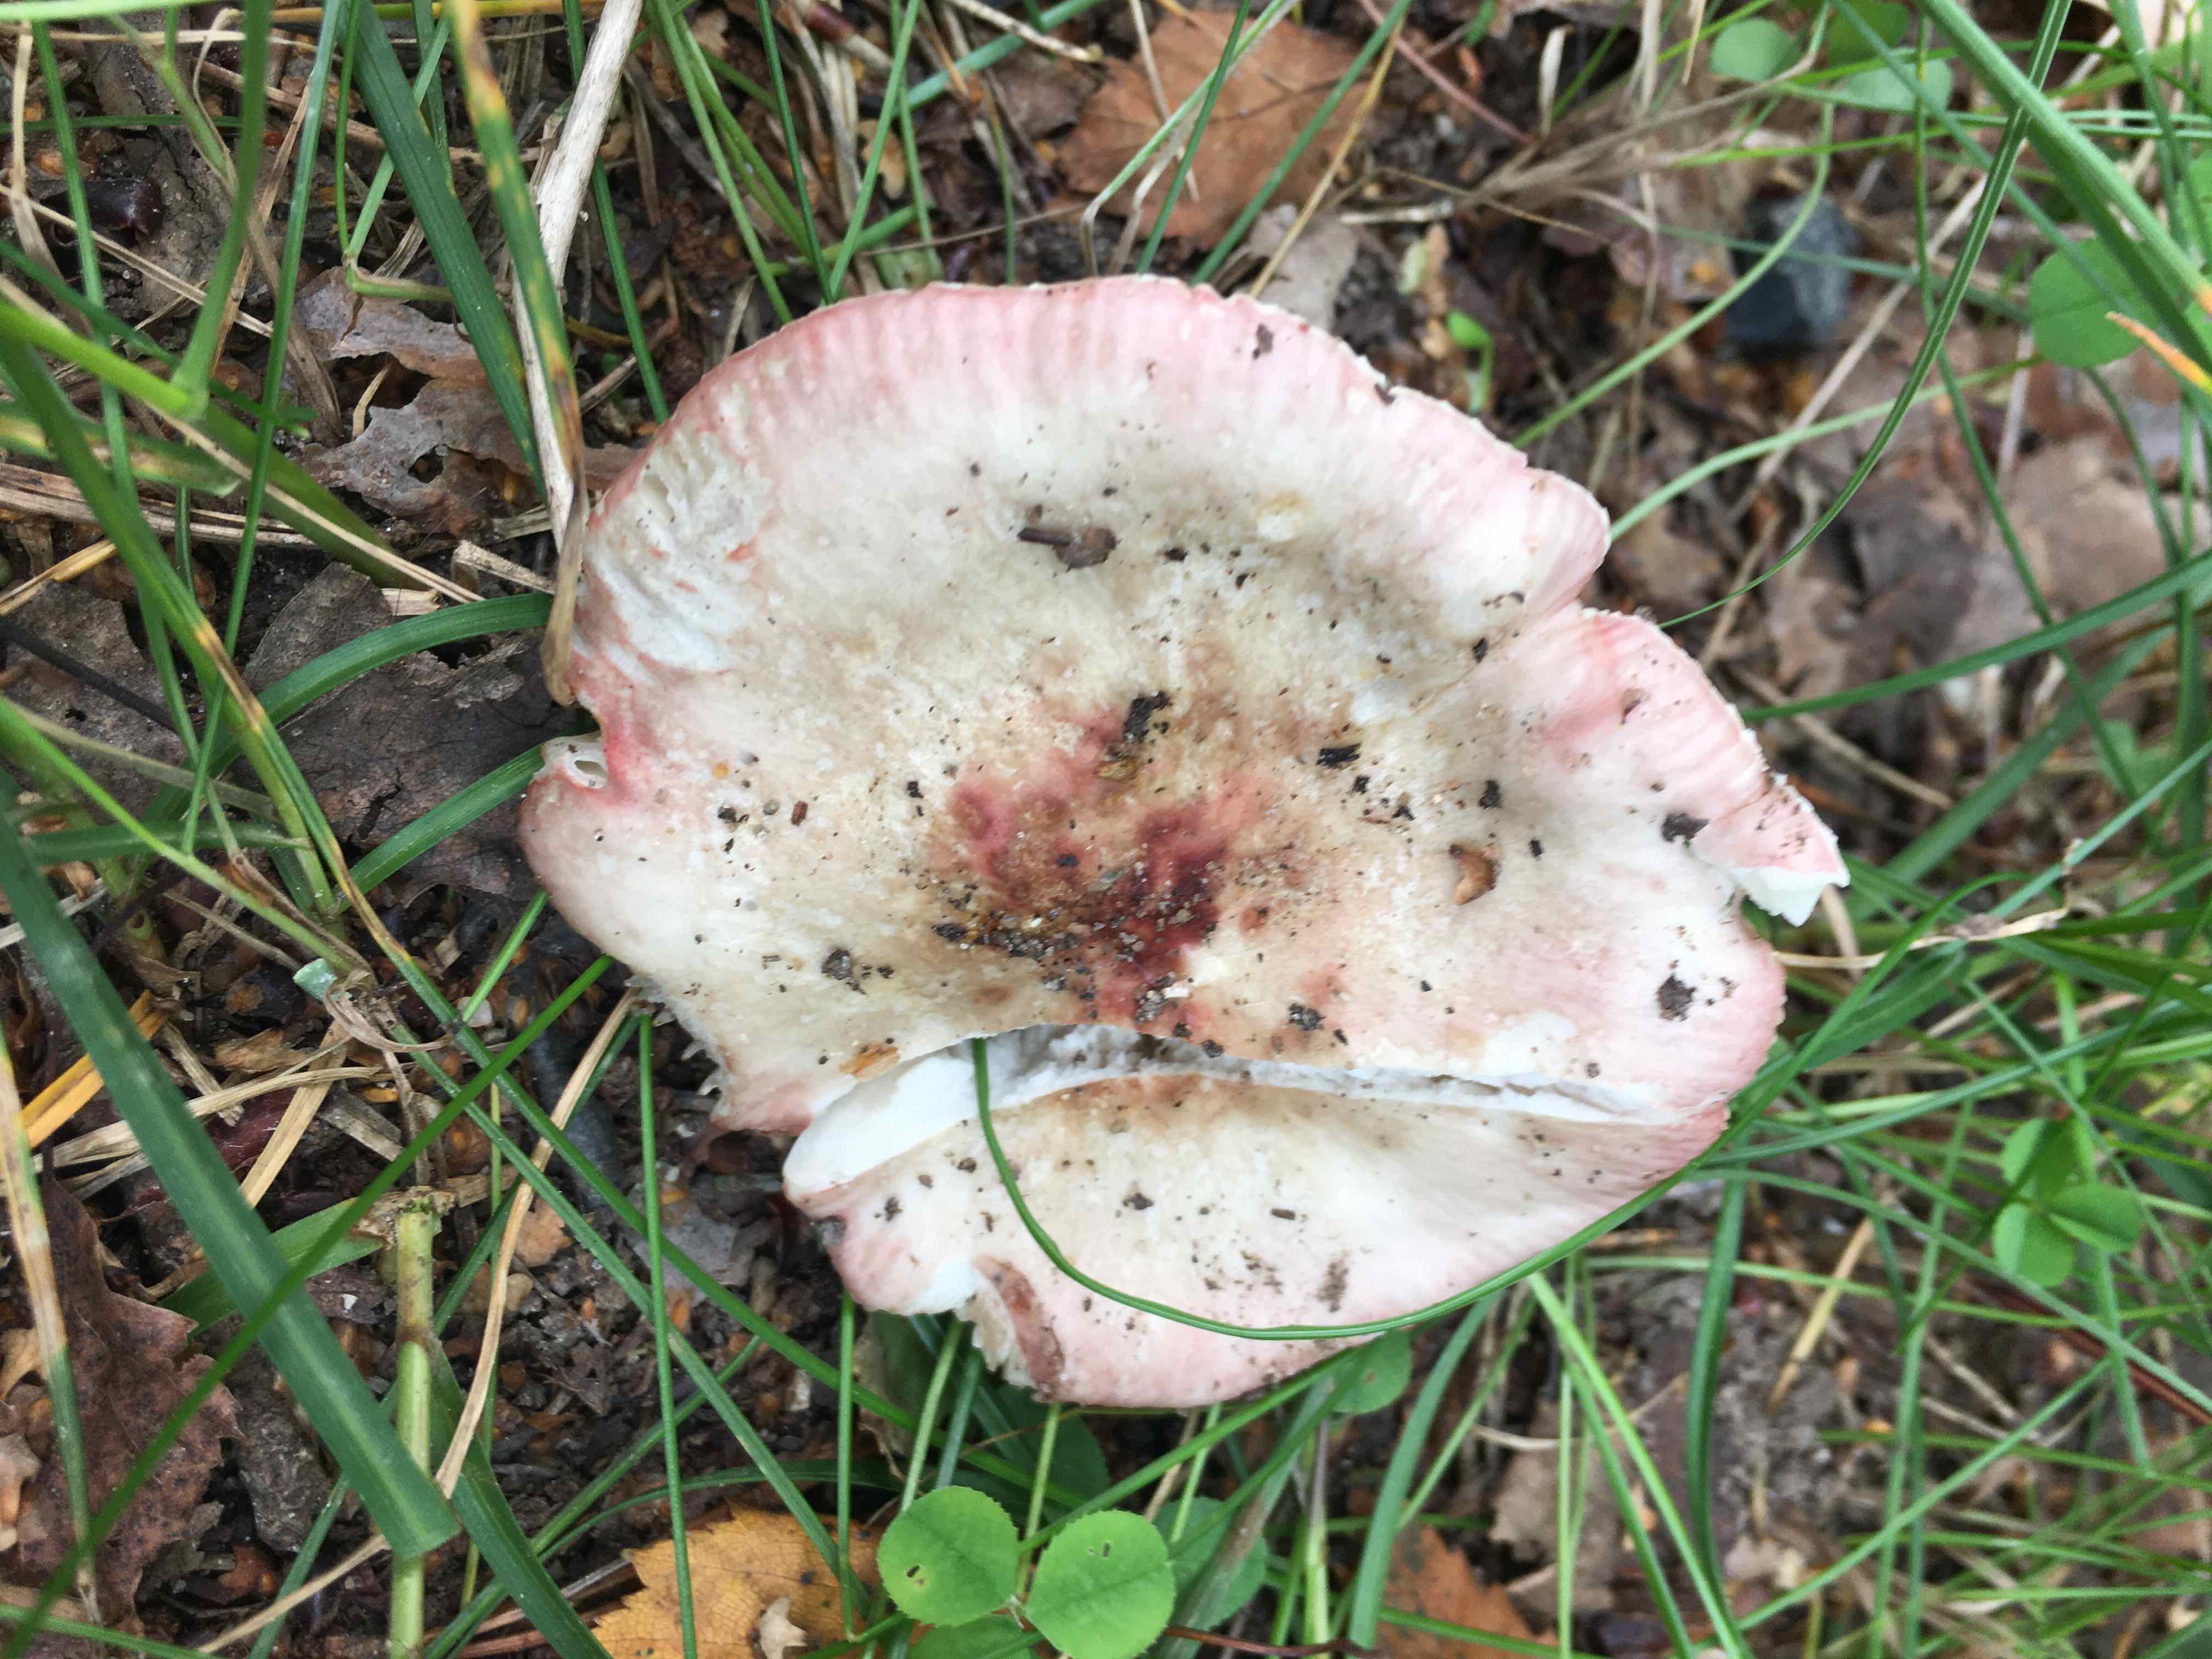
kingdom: Fungi
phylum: Basidiomycota
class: Agaricomycetes
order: Russulales
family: Russulaceae
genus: Russula
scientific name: Russula depallens
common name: falmende skørhat
